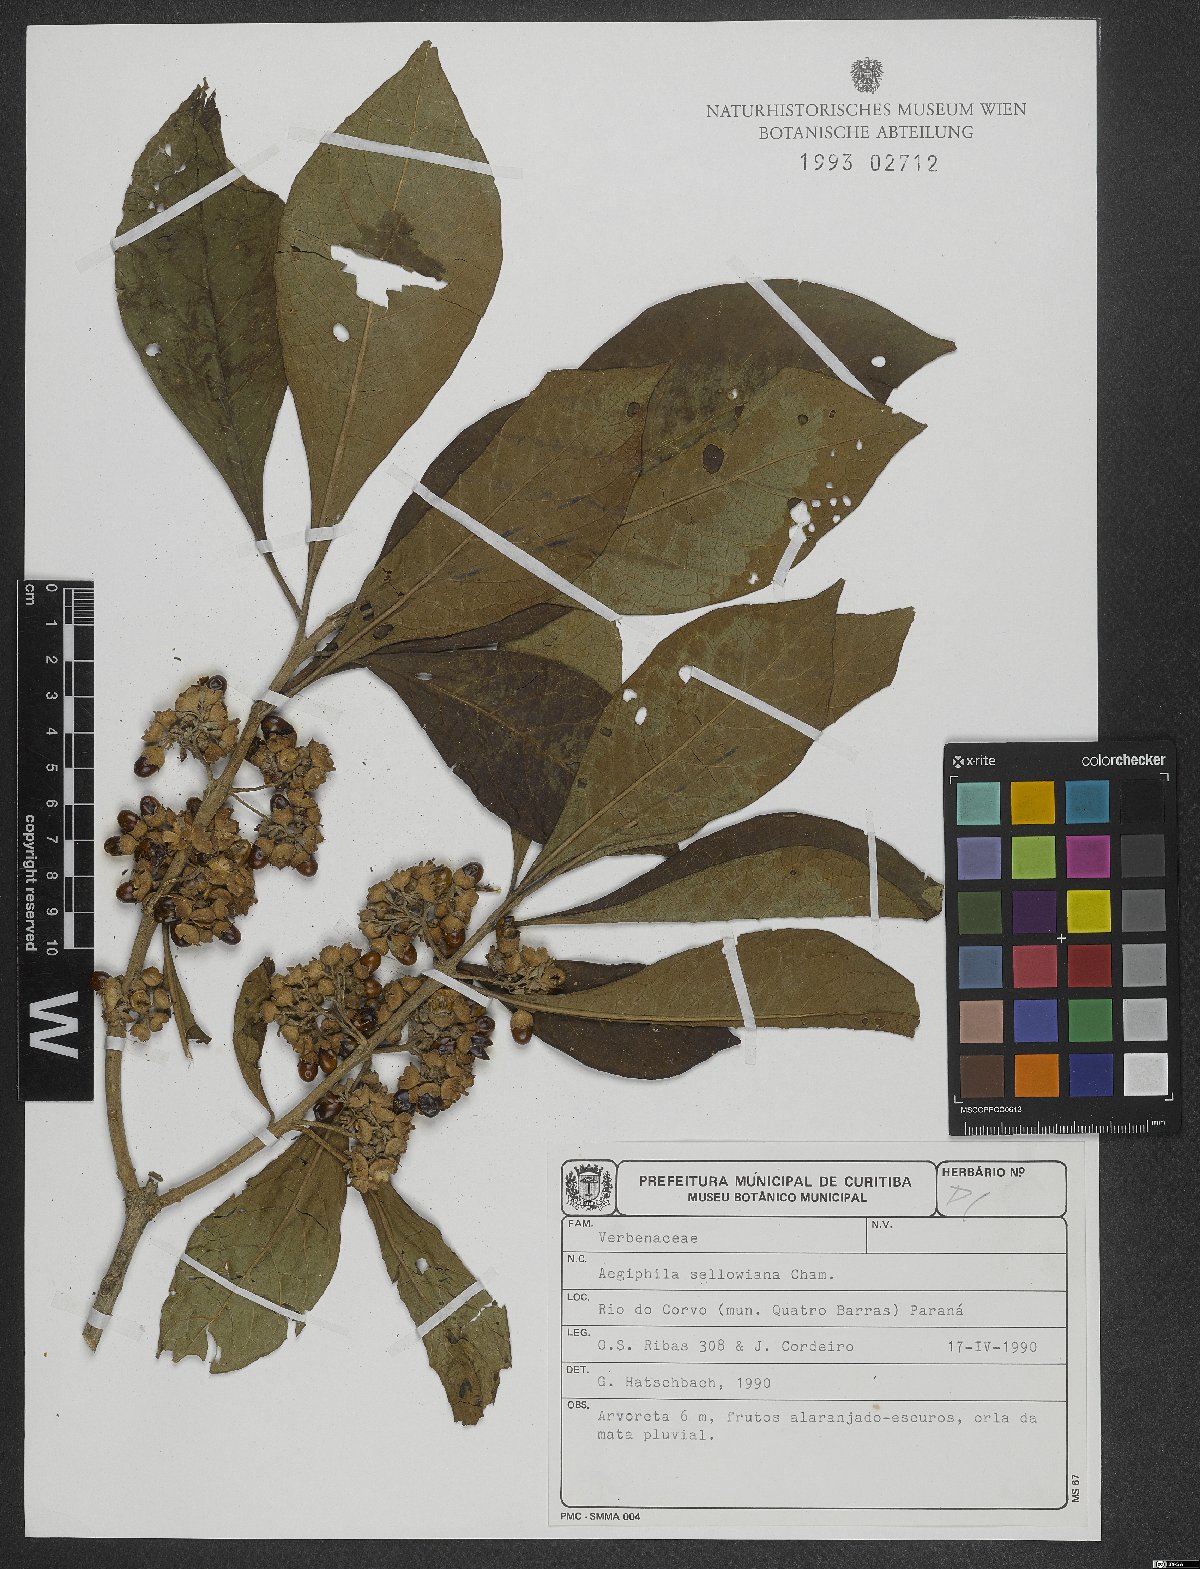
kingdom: Plantae
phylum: Tracheophyta
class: Magnoliopsida
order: Lamiales
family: Lamiaceae
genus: Aegiphila
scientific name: Aegiphila verticillata
